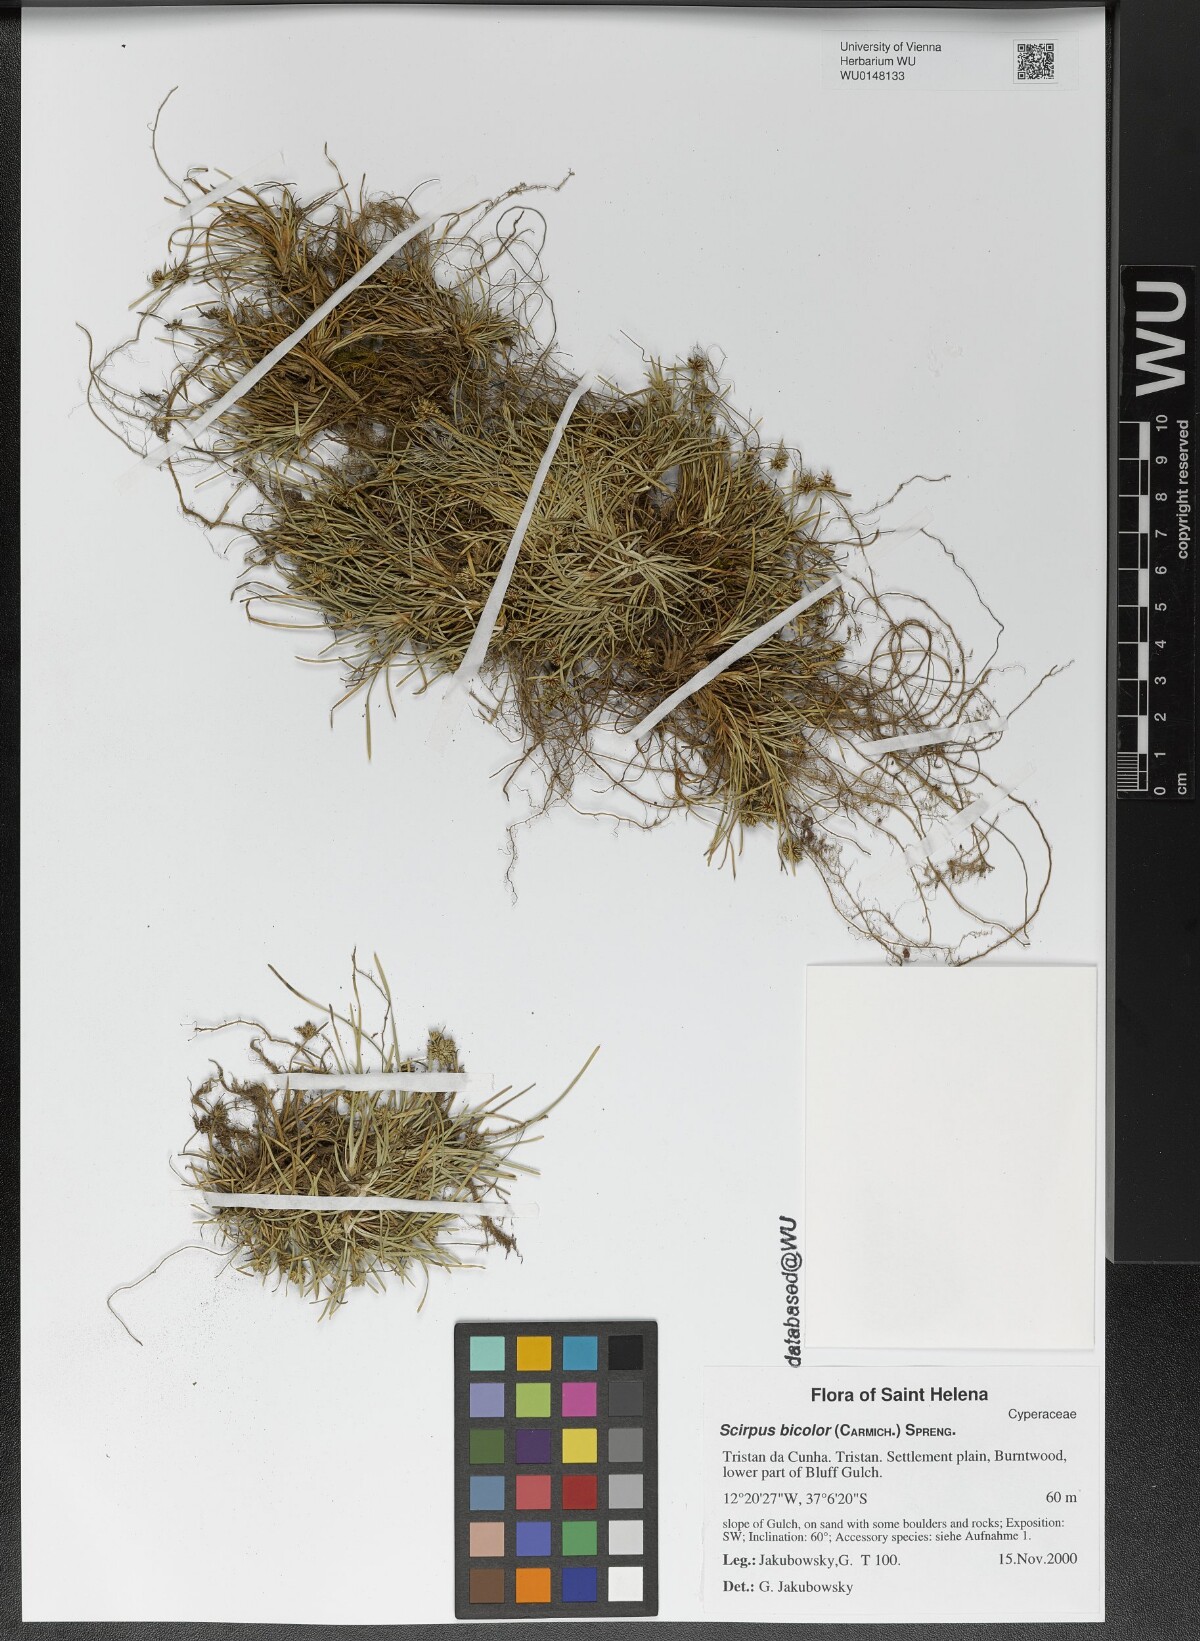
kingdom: Plantae
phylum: Tracheophyta
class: Liliopsida
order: Poales
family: Cyperaceae
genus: Isolepis
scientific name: Isolepis bicolor
